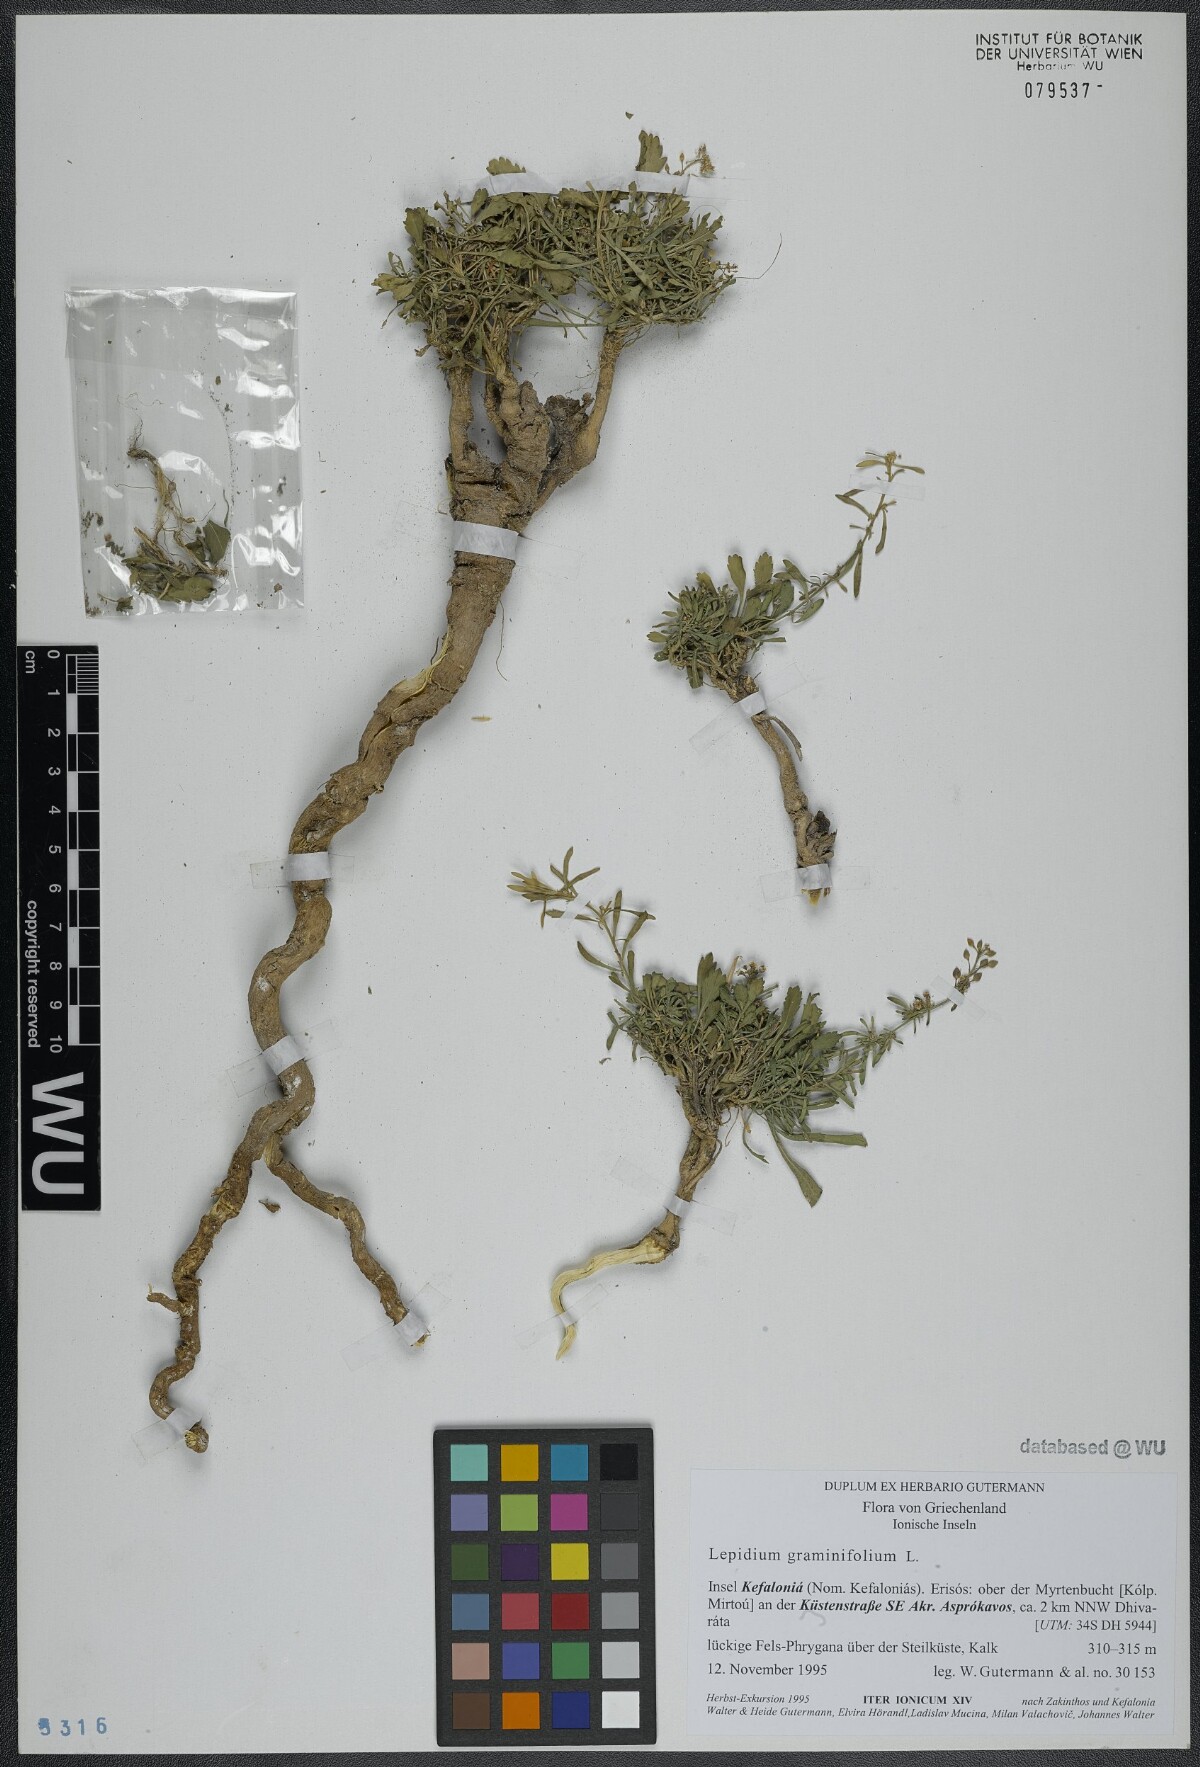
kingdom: Plantae
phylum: Tracheophyta
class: Magnoliopsida
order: Brassicales
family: Brassicaceae
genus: Lepidium
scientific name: Lepidium graminifolium
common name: Tall pepperwort
